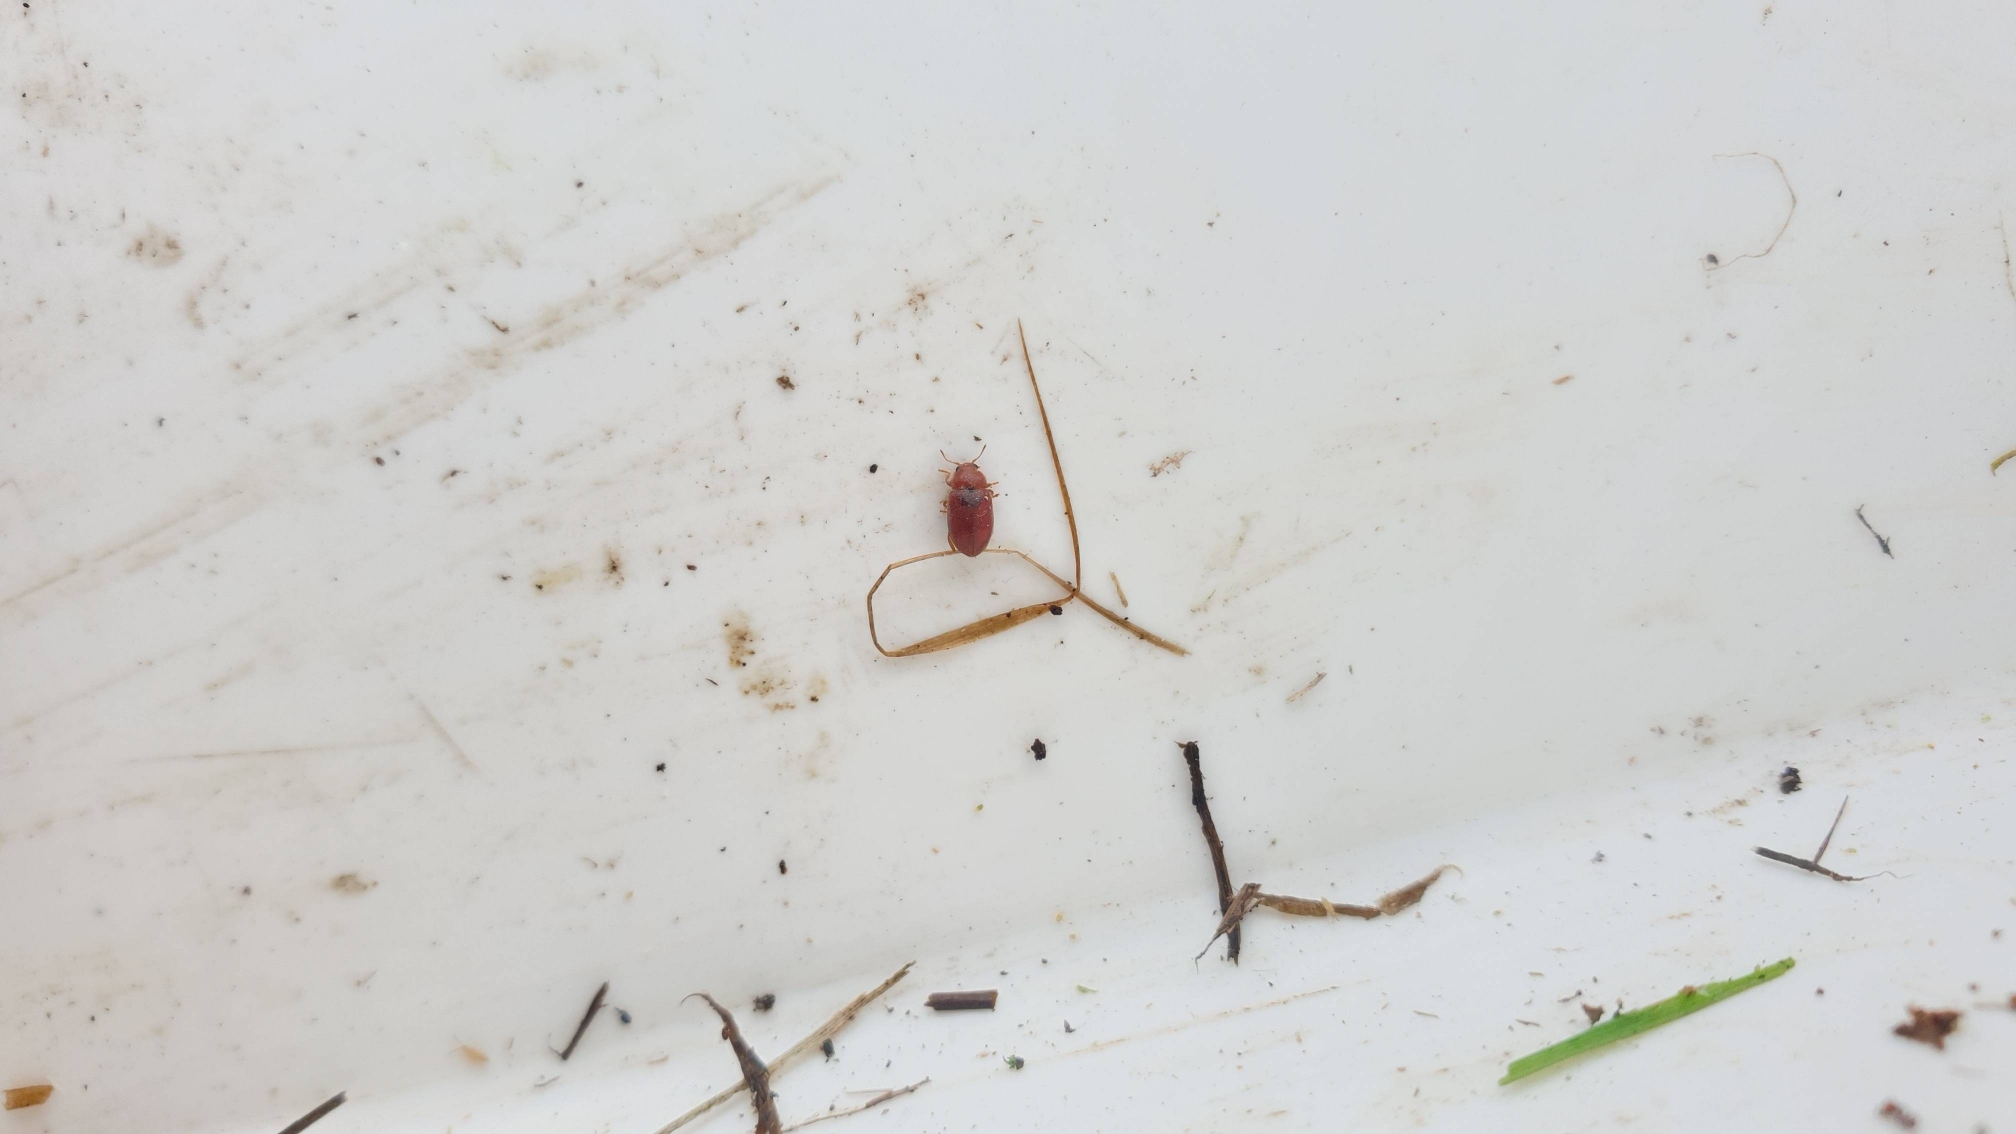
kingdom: Animalia
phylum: Arthropoda
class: Insecta
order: Coleoptera
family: Coccinellidae
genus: Coccidula
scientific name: Coccidula rufa
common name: Slank mariehøne
